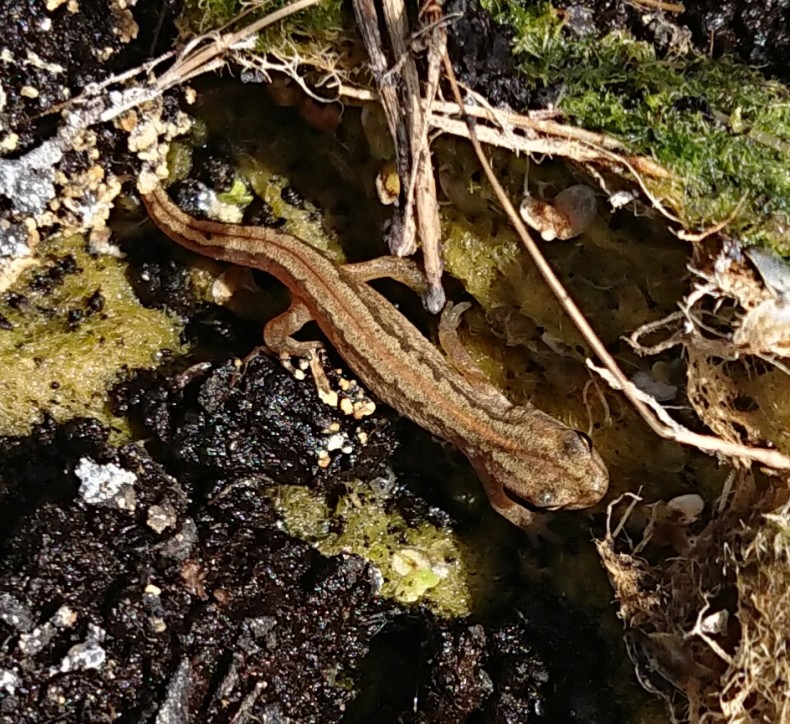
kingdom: Animalia
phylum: Chordata
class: Amphibia
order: Caudata
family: Salamandridae
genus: Lissotriton
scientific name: Lissotriton vulgaris
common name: Lille vandsalamander
